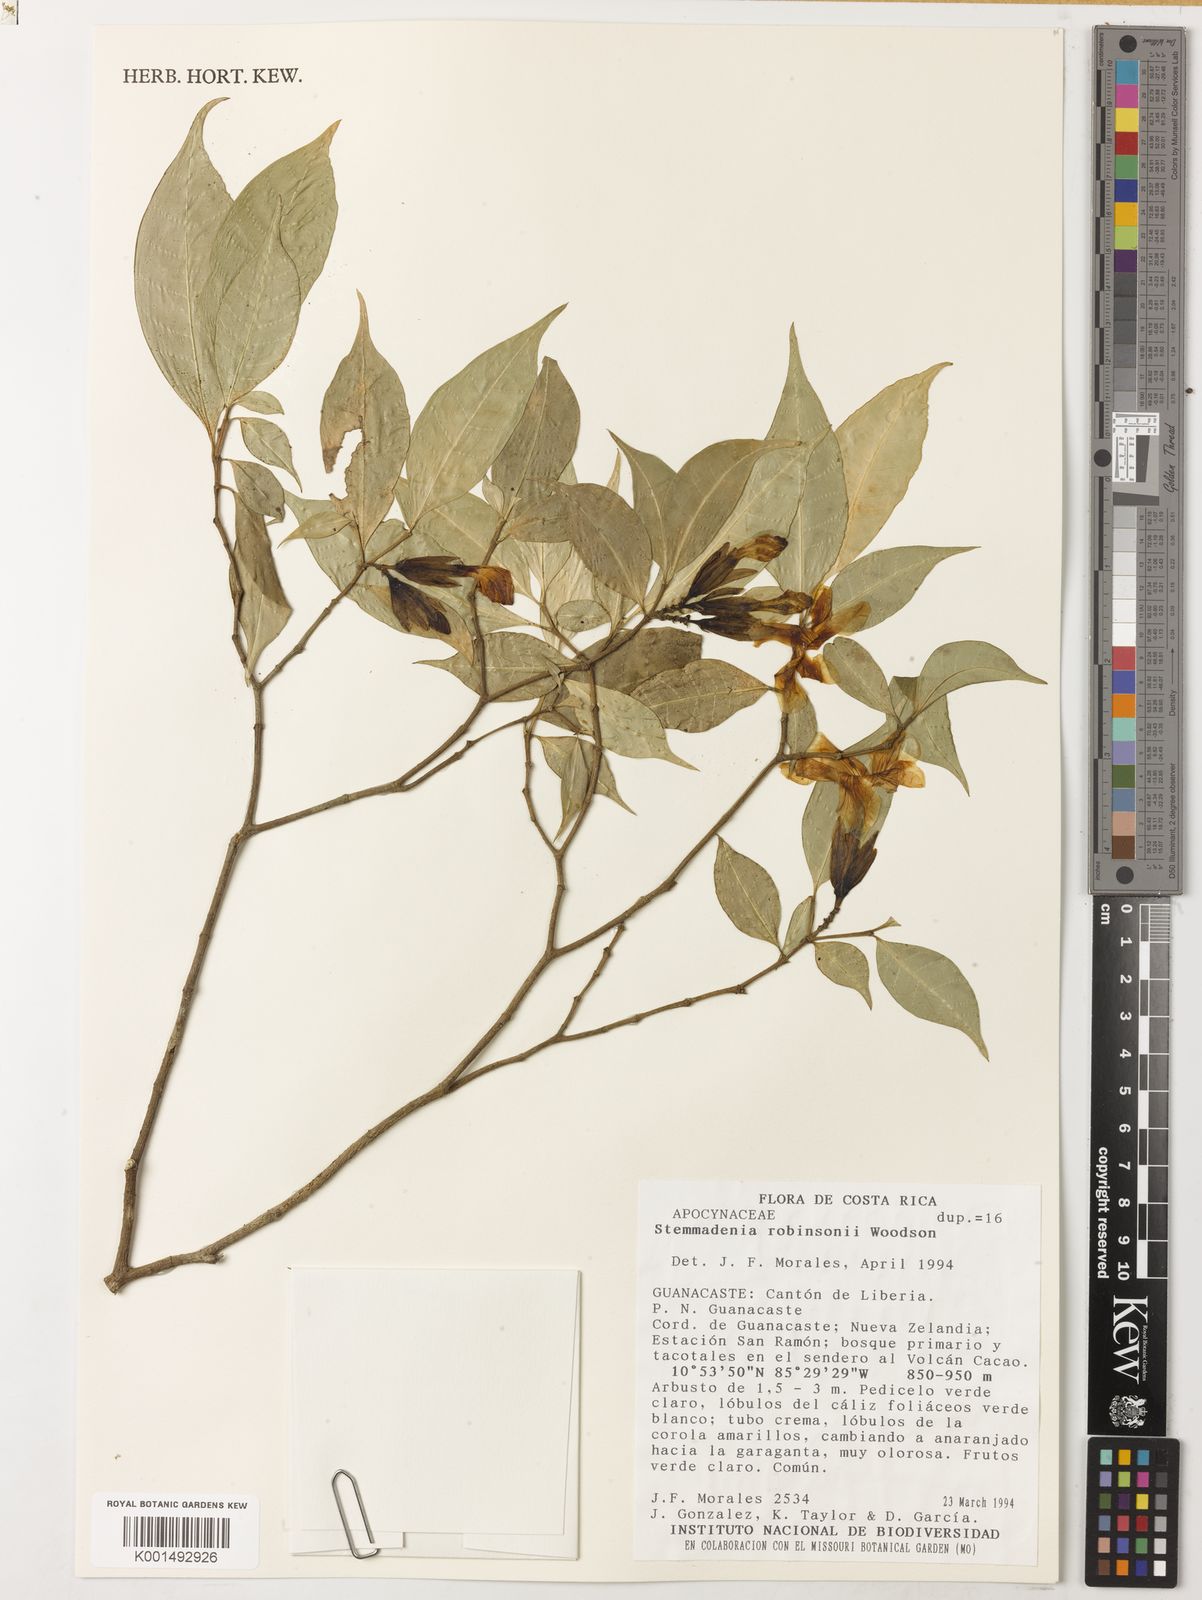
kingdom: Plantae
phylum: Tracheophyta
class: Magnoliopsida
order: Gentianales
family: Apocynaceae
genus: Macoubea
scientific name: Macoubea guianensis
